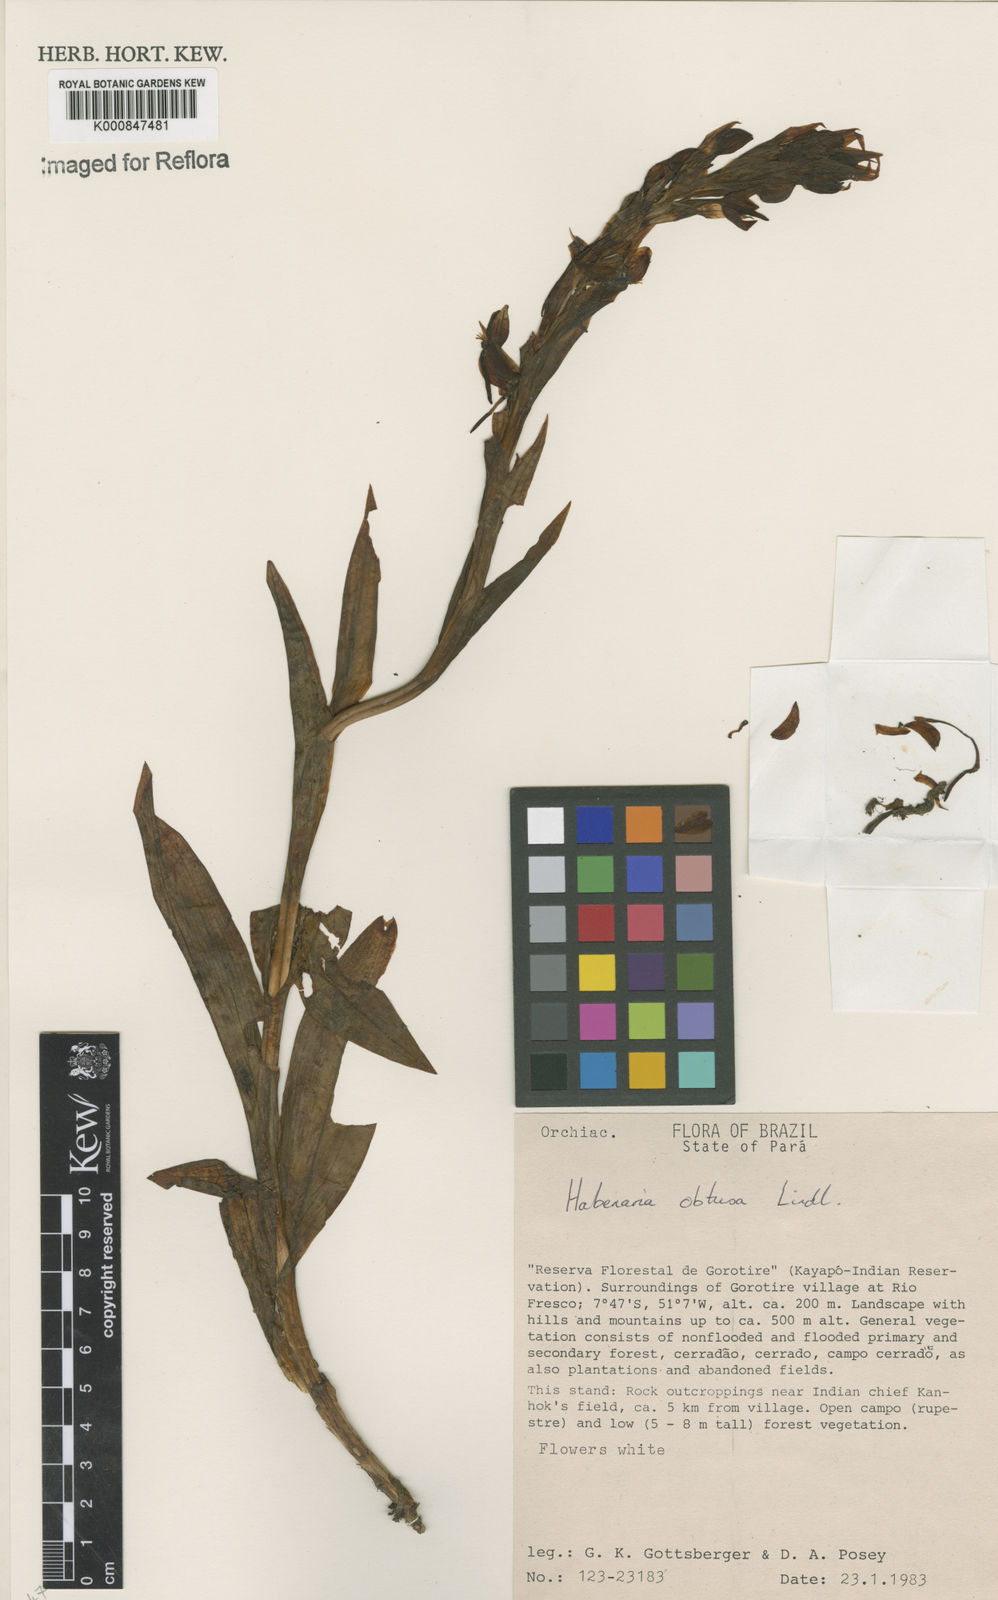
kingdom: Plantae
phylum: Tracheophyta
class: Liliopsida
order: Asparagales
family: Orchidaceae
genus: Habenaria
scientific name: Habenaria obtusa
